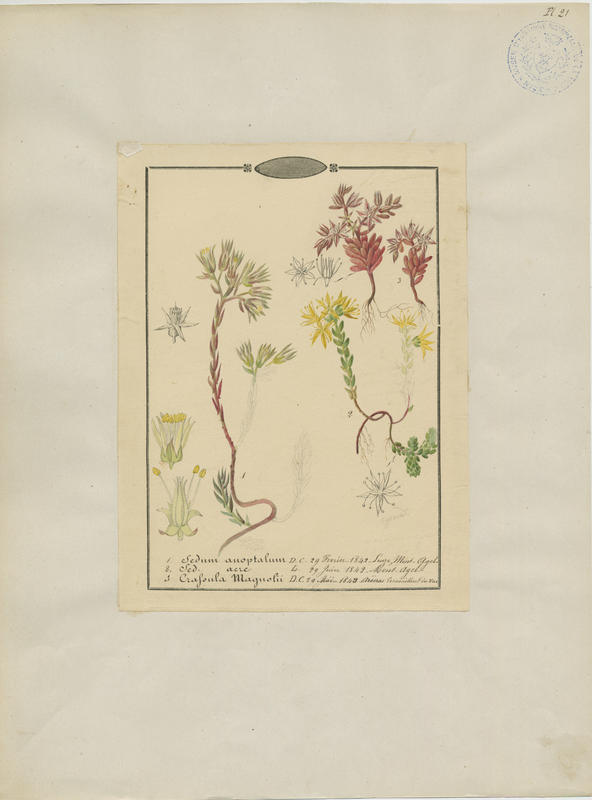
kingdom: Plantae
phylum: Tracheophyta
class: Magnoliopsida
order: Saxifragales
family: Crassulaceae
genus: Sedum
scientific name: Sedum cespitosum
